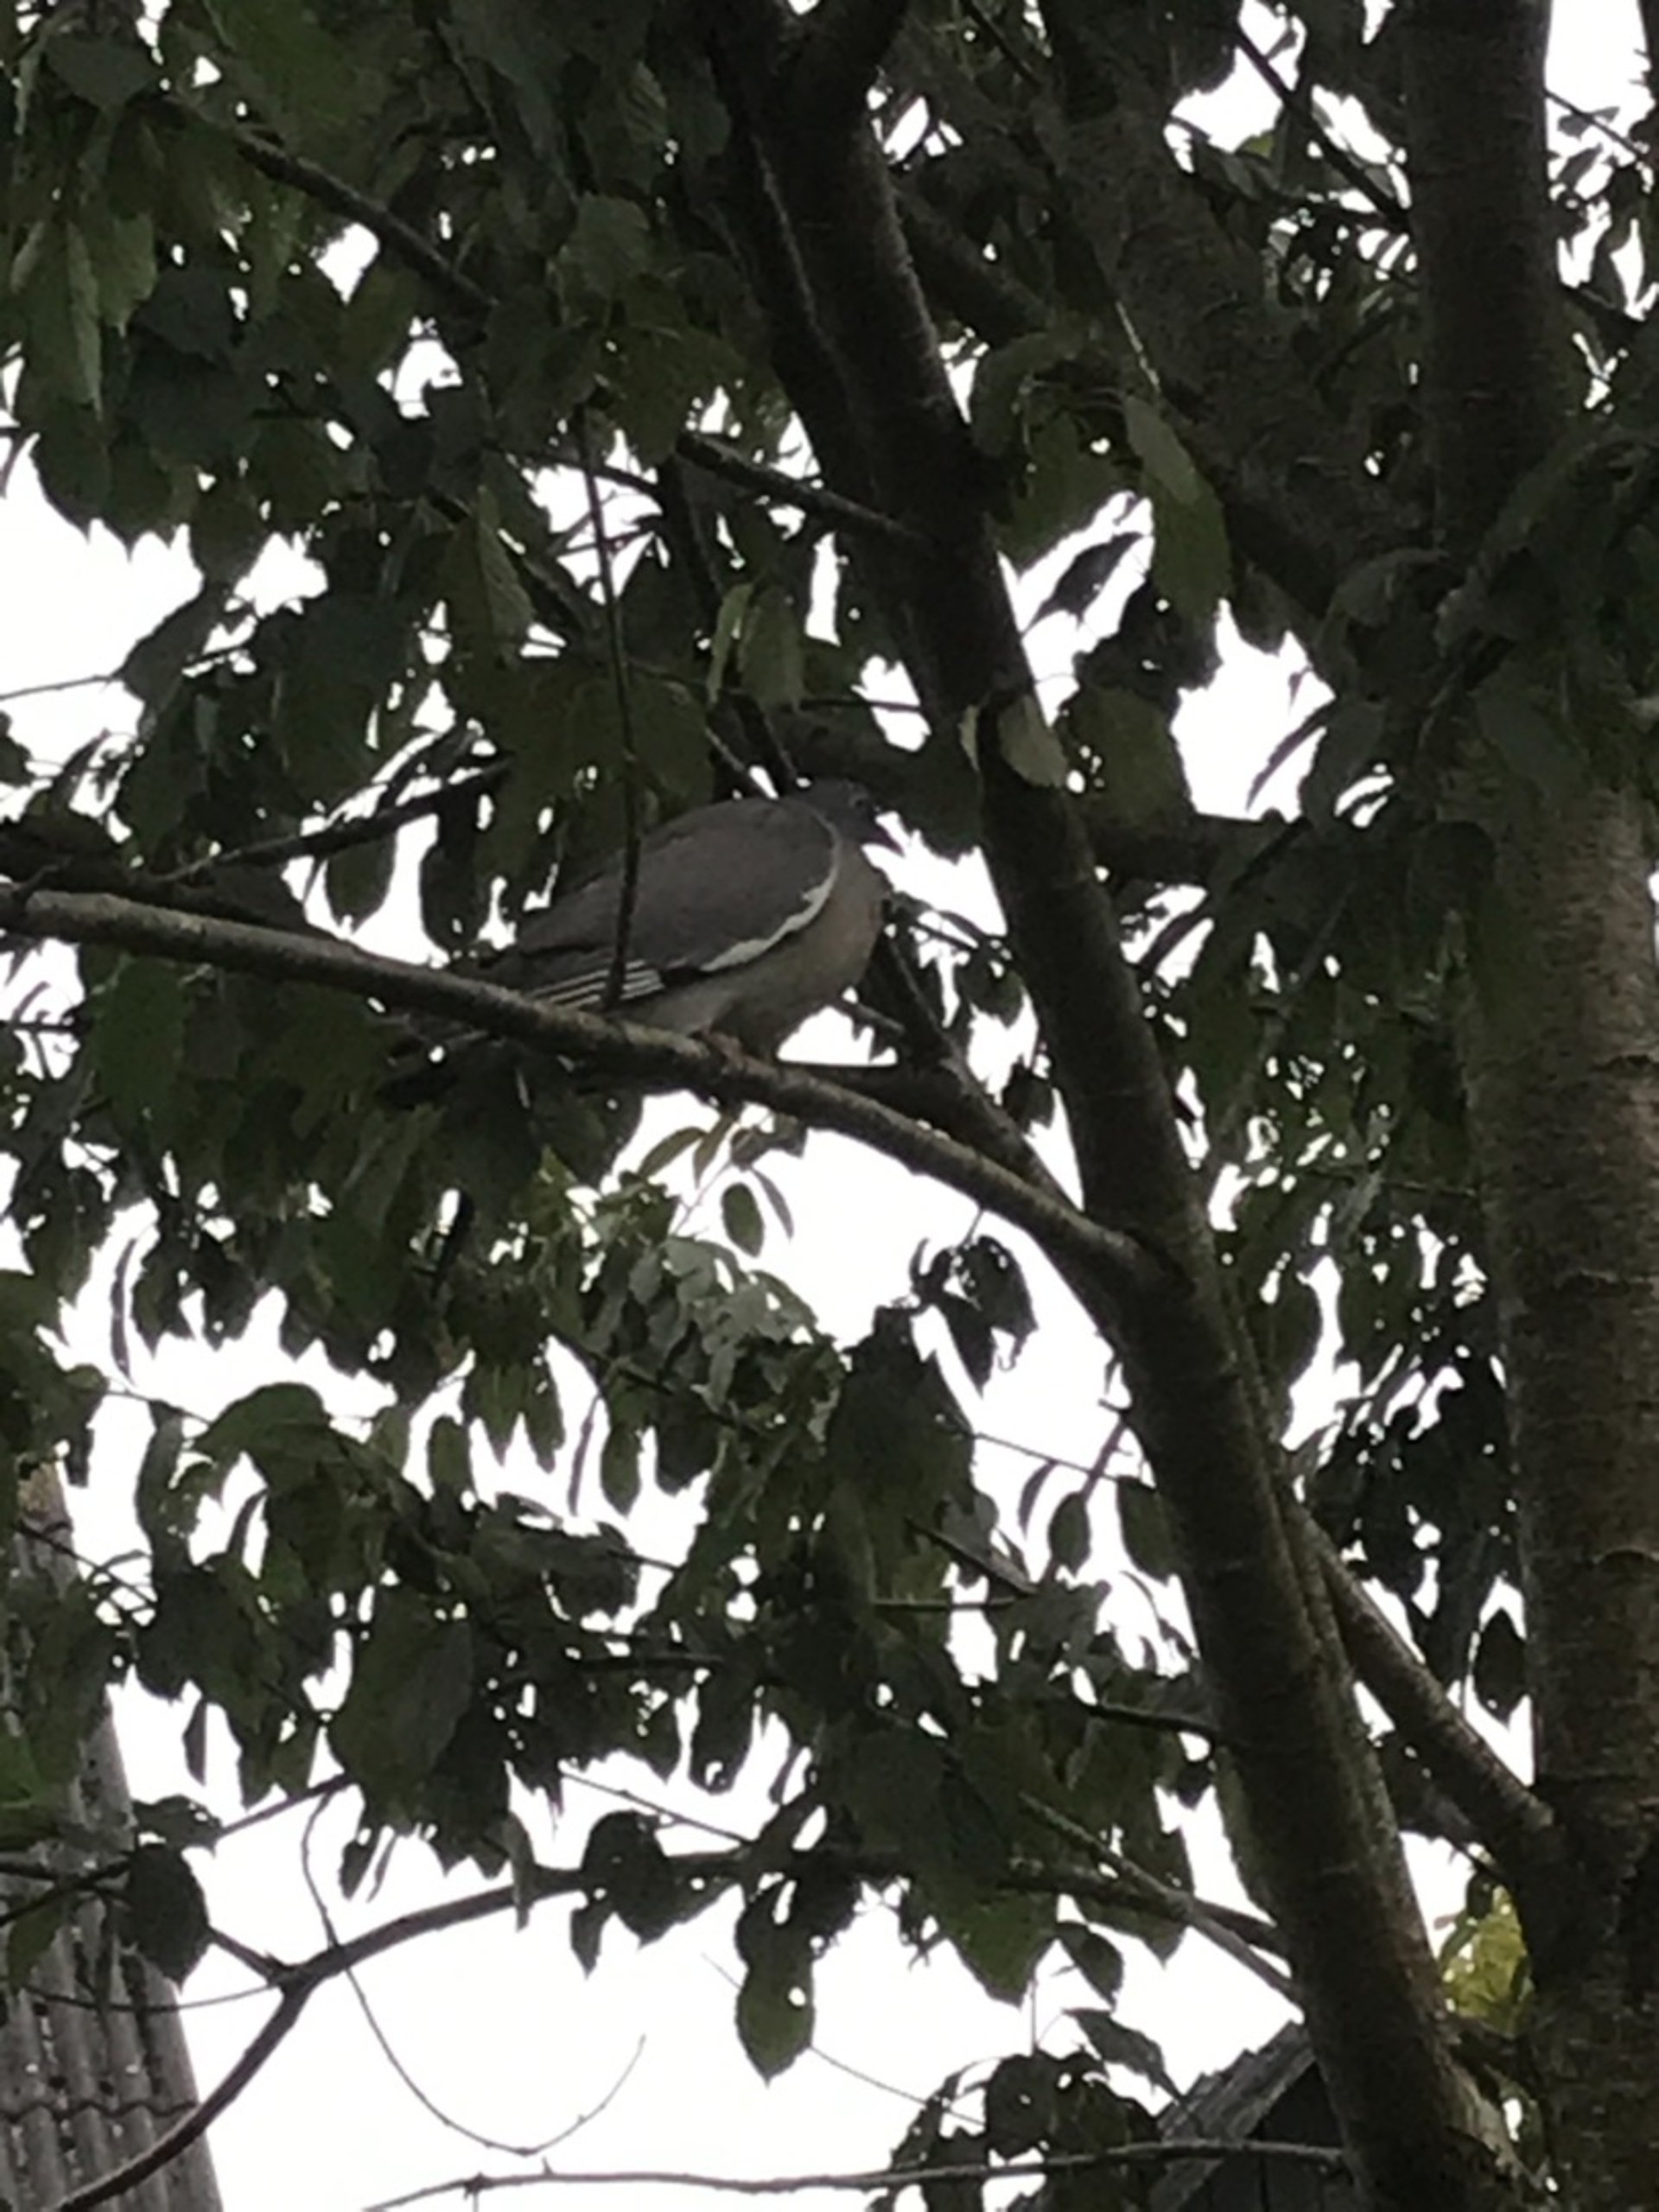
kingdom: Animalia
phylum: Chordata
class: Aves
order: Columbiformes
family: Columbidae
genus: Columba
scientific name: Columba palumbus
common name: Ringdue
